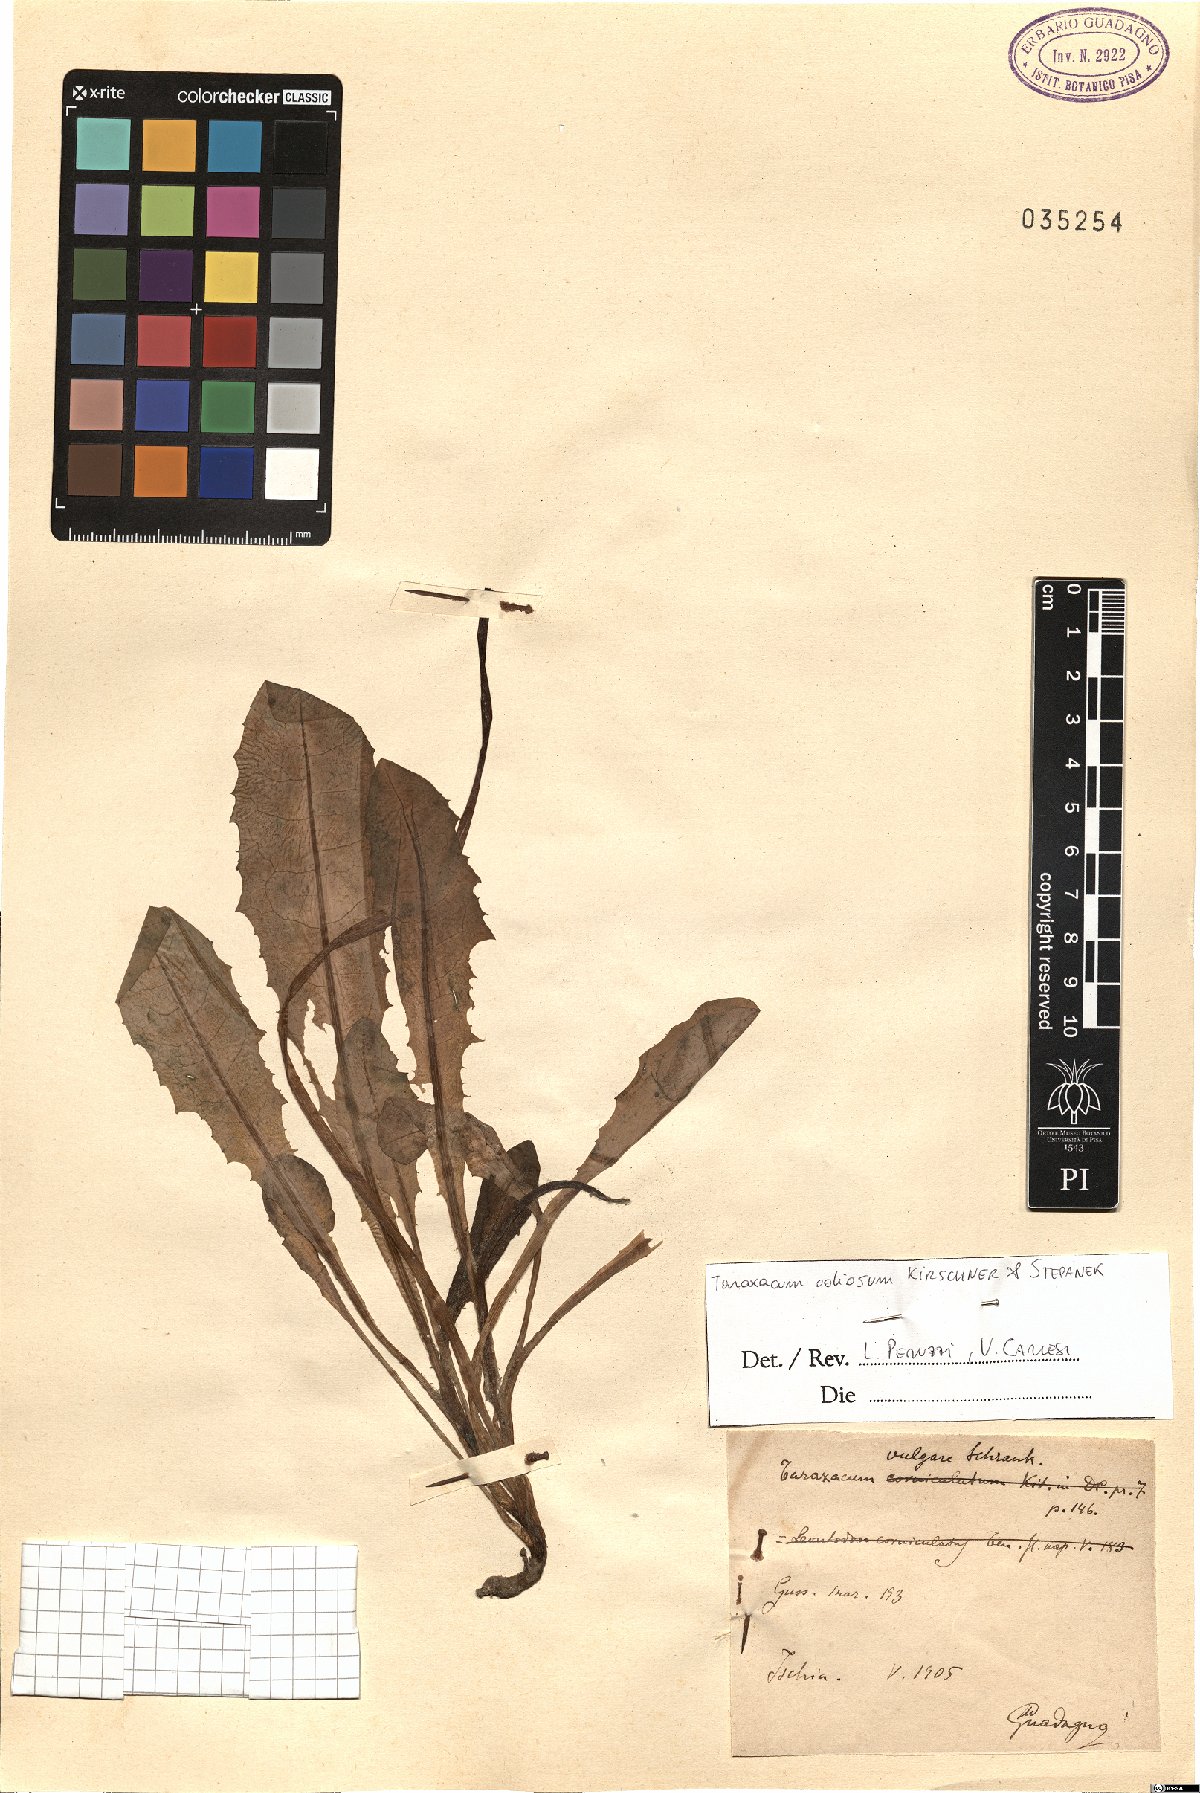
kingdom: Plantae
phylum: Tracheophyta
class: Magnoliopsida
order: Asterales
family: Asteraceae
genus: Taraxacum
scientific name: Taraxacum odiosum
